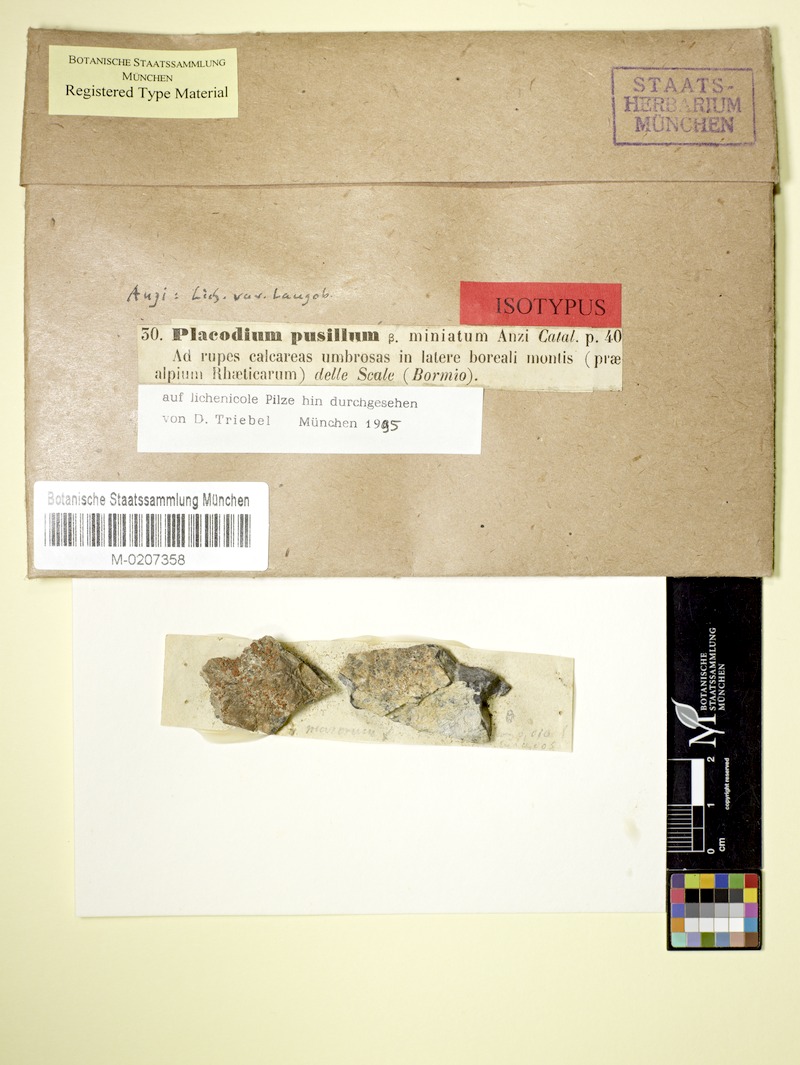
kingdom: Fungi
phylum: Ascomycota
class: Lecanoromycetes
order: Teloschistales
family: Teloschistaceae
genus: Leproplaca
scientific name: Leproplaca proteus
